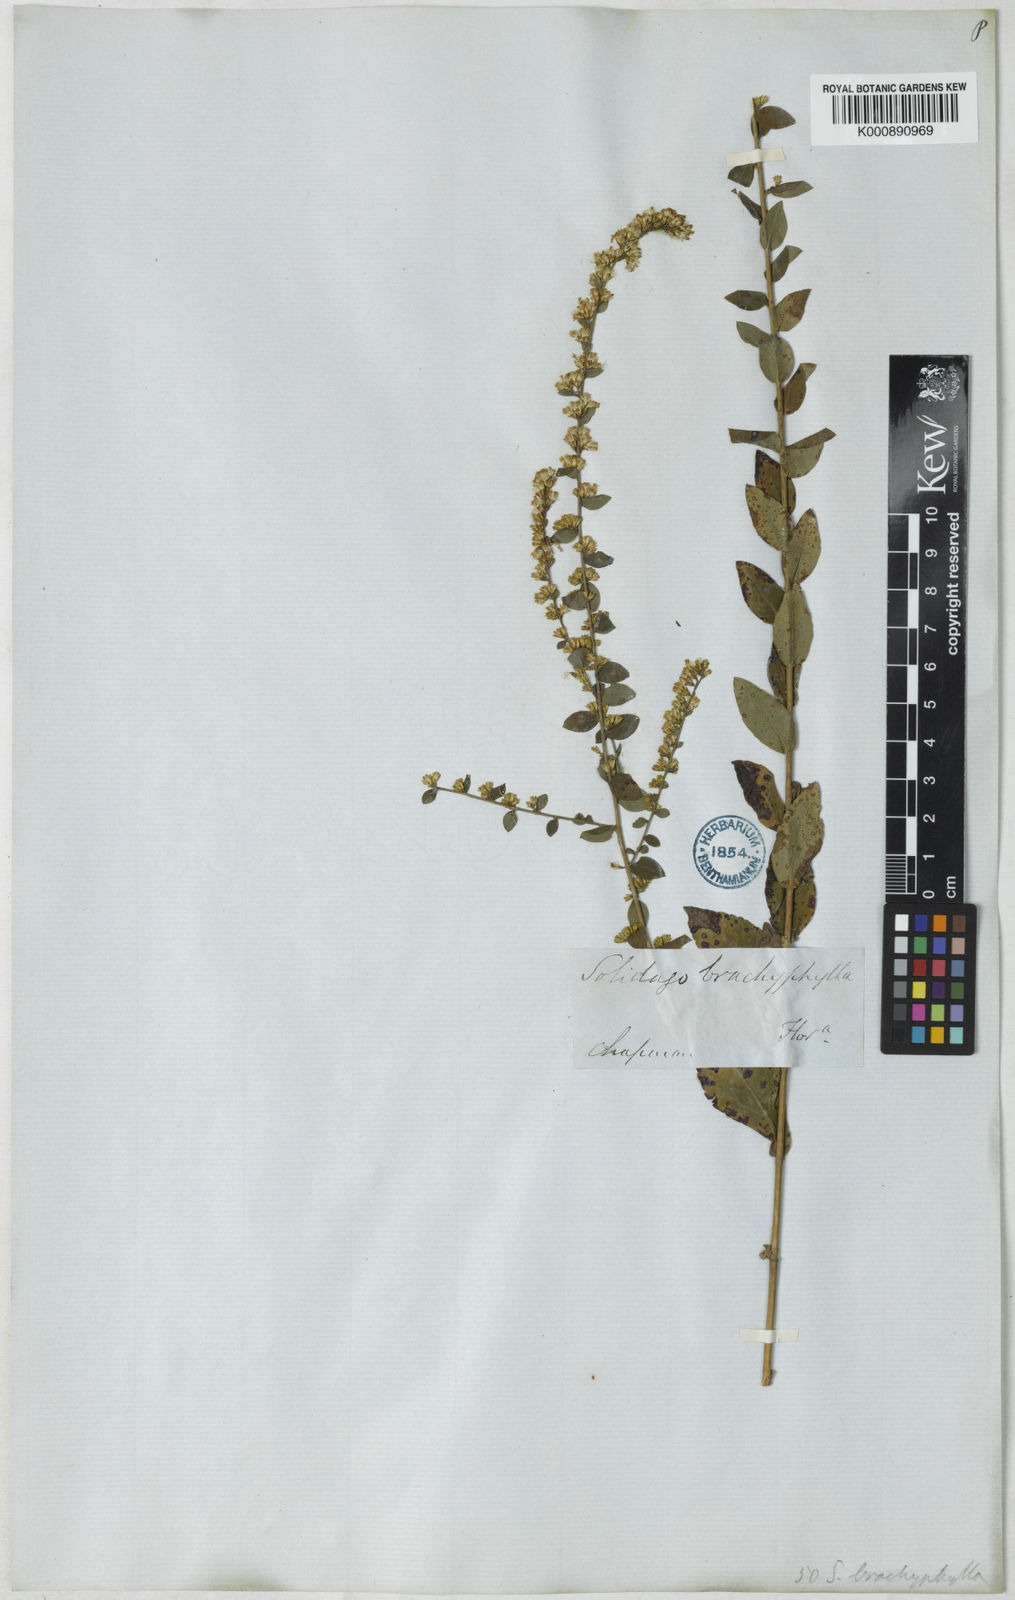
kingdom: Plantae
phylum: Tracheophyta
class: Magnoliopsida
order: Asterales
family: Asteraceae
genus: Solidago
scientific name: Solidago brachyphylla
